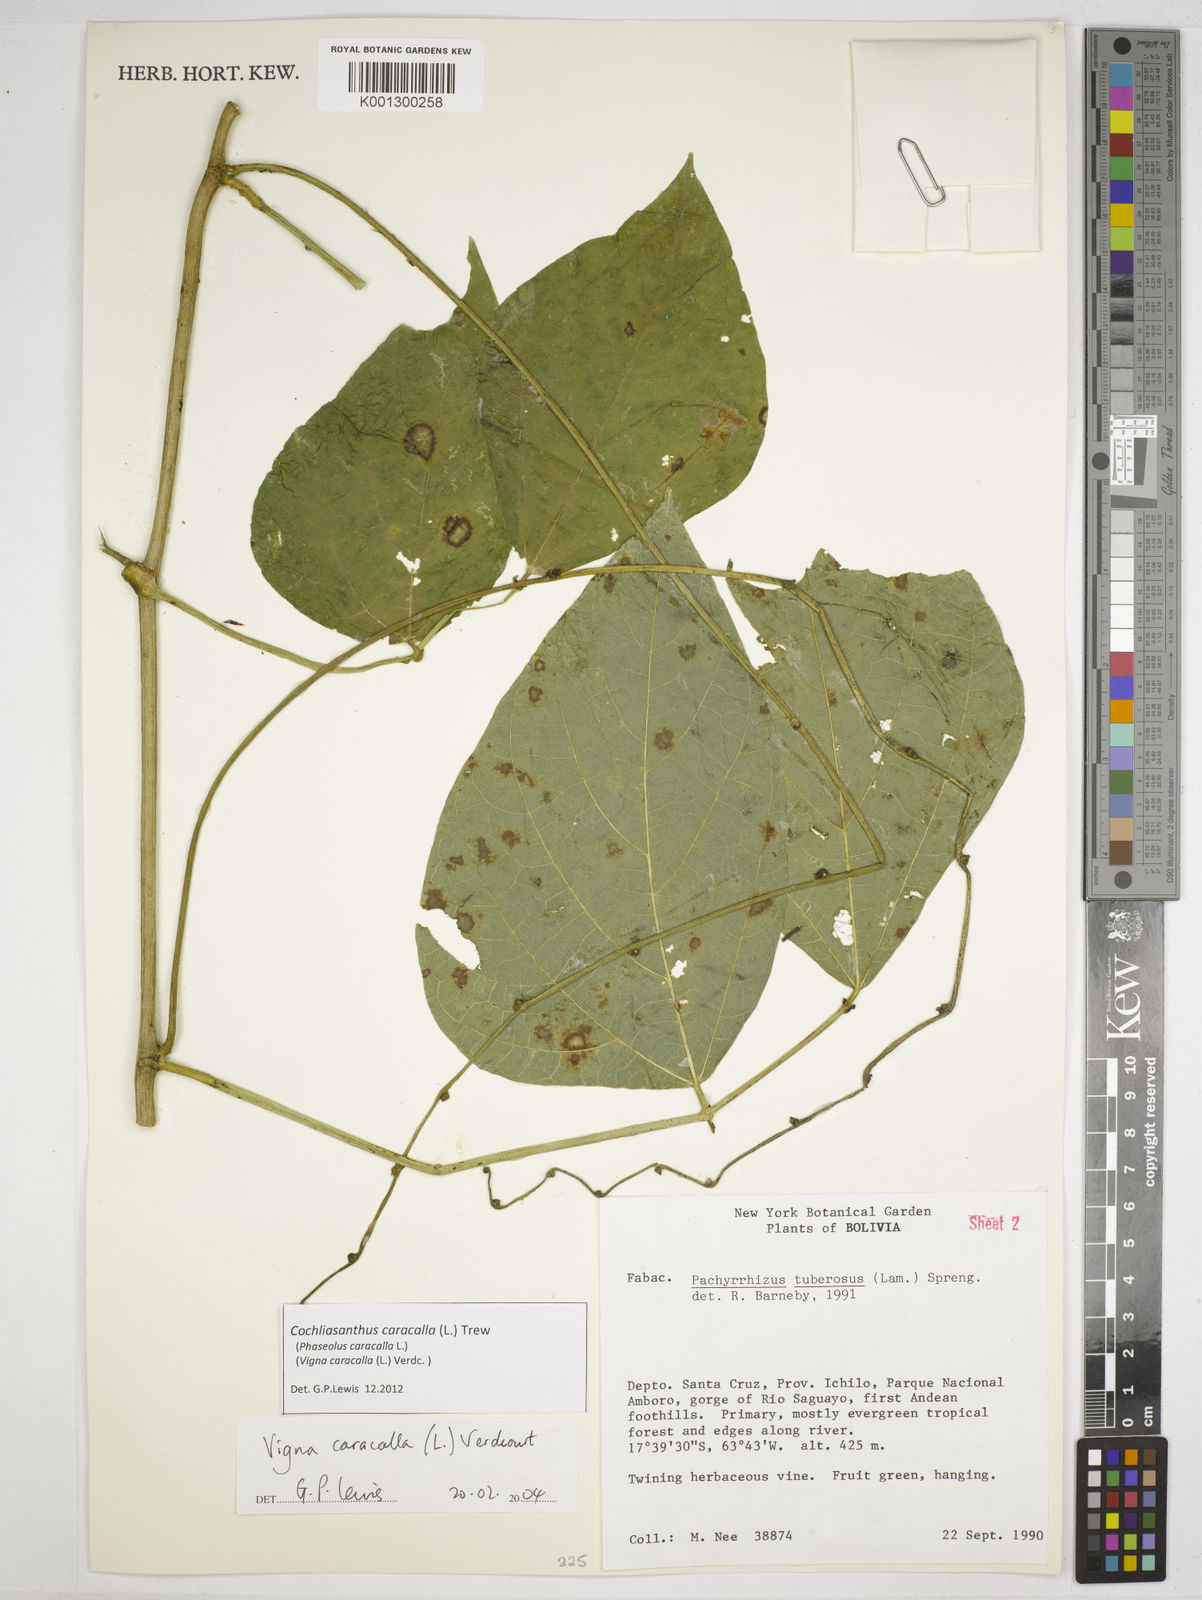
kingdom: Plantae
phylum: Tracheophyta
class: Magnoliopsida
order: Fabales
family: Fabaceae
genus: Cochliasanthus
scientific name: Cochliasanthus caracalla
